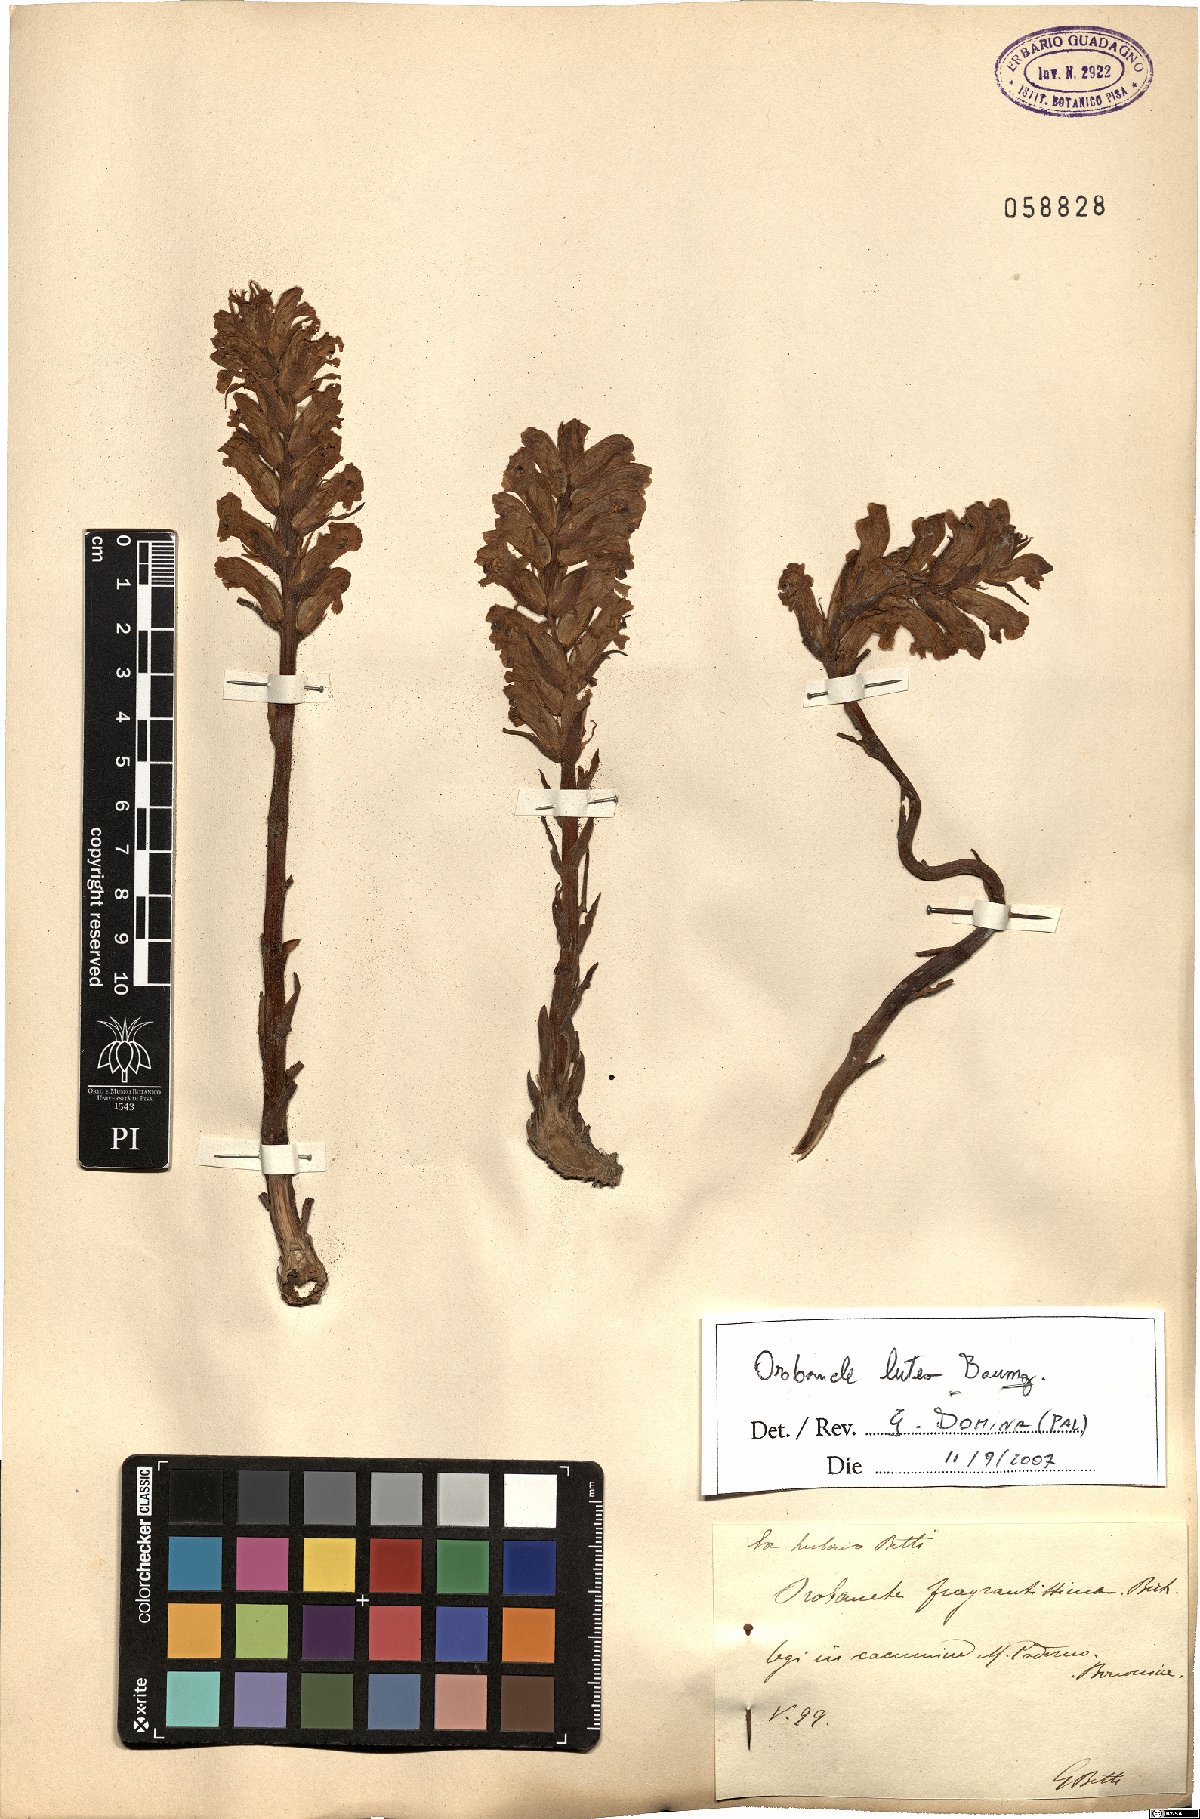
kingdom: Plantae
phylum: Tracheophyta
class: Magnoliopsida
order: Lamiales
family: Orobanchaceae
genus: Orobanche
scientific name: Orobanche lutea
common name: Yellow broomrape
